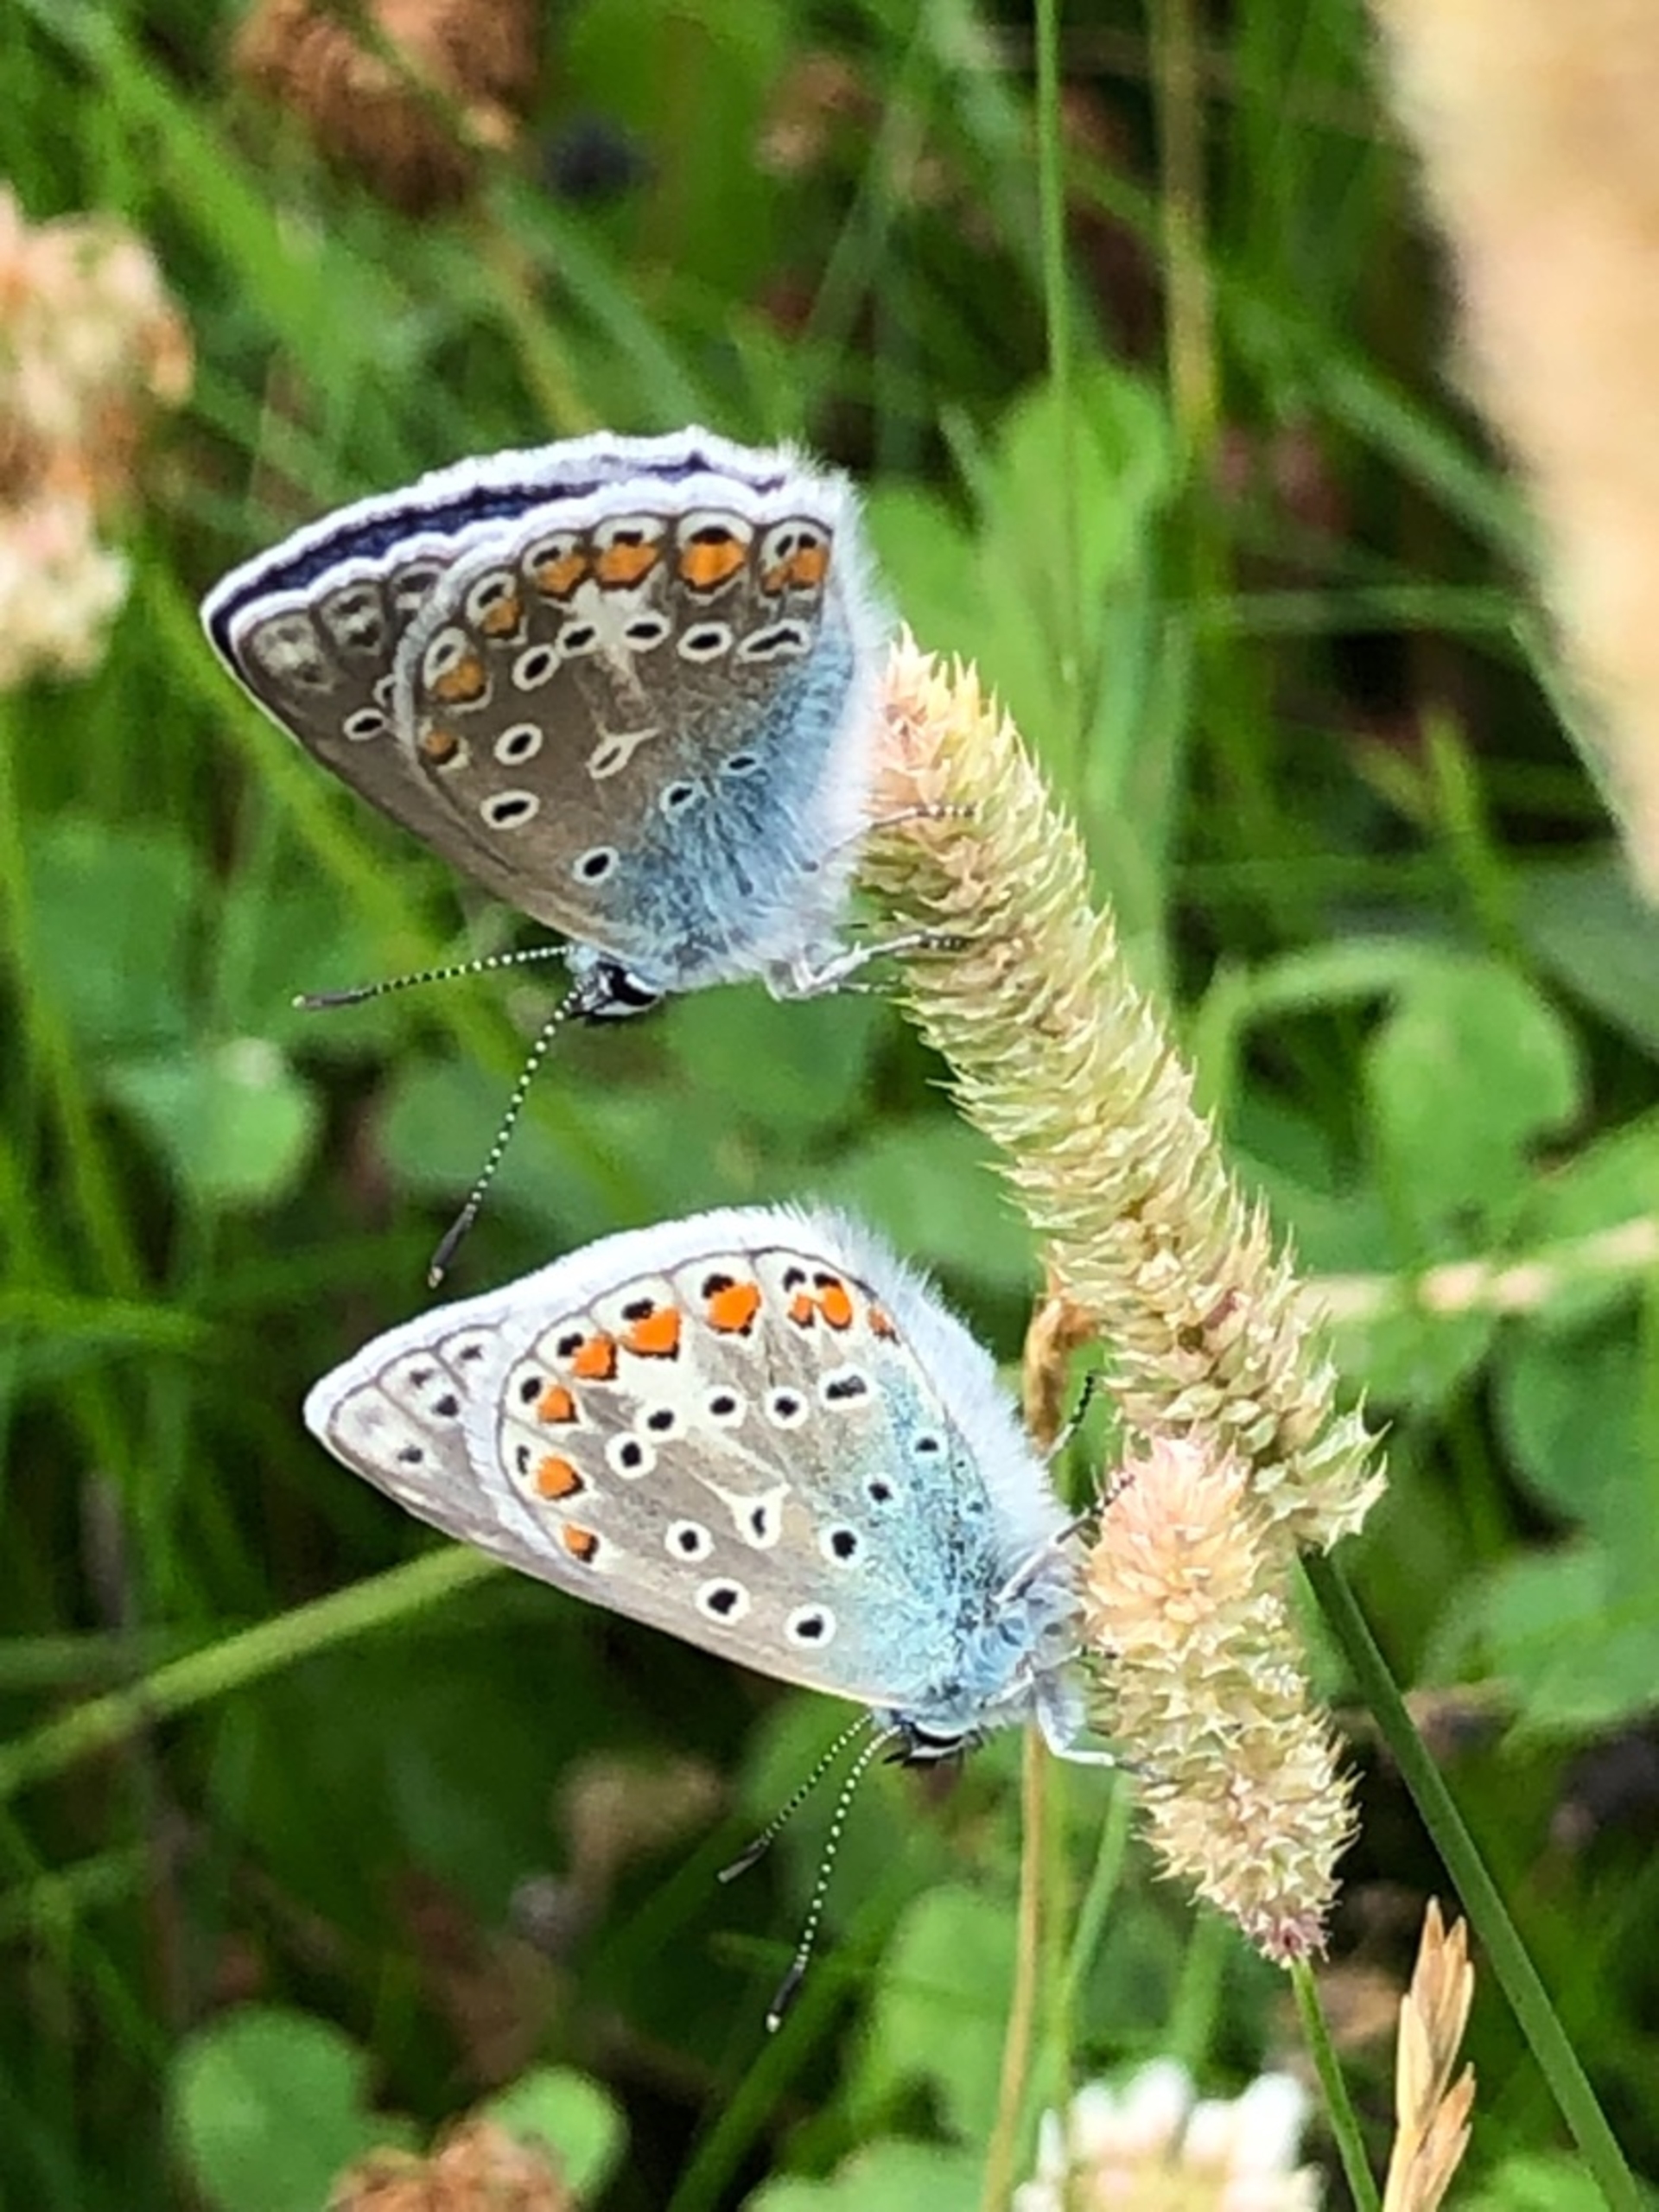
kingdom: Animalia
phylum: Arthropoda
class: Insecta
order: Lepidoptera
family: Lycaenidae
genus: Polyommatus
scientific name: Polyommatus icarus
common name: Almindelig blåfugl
